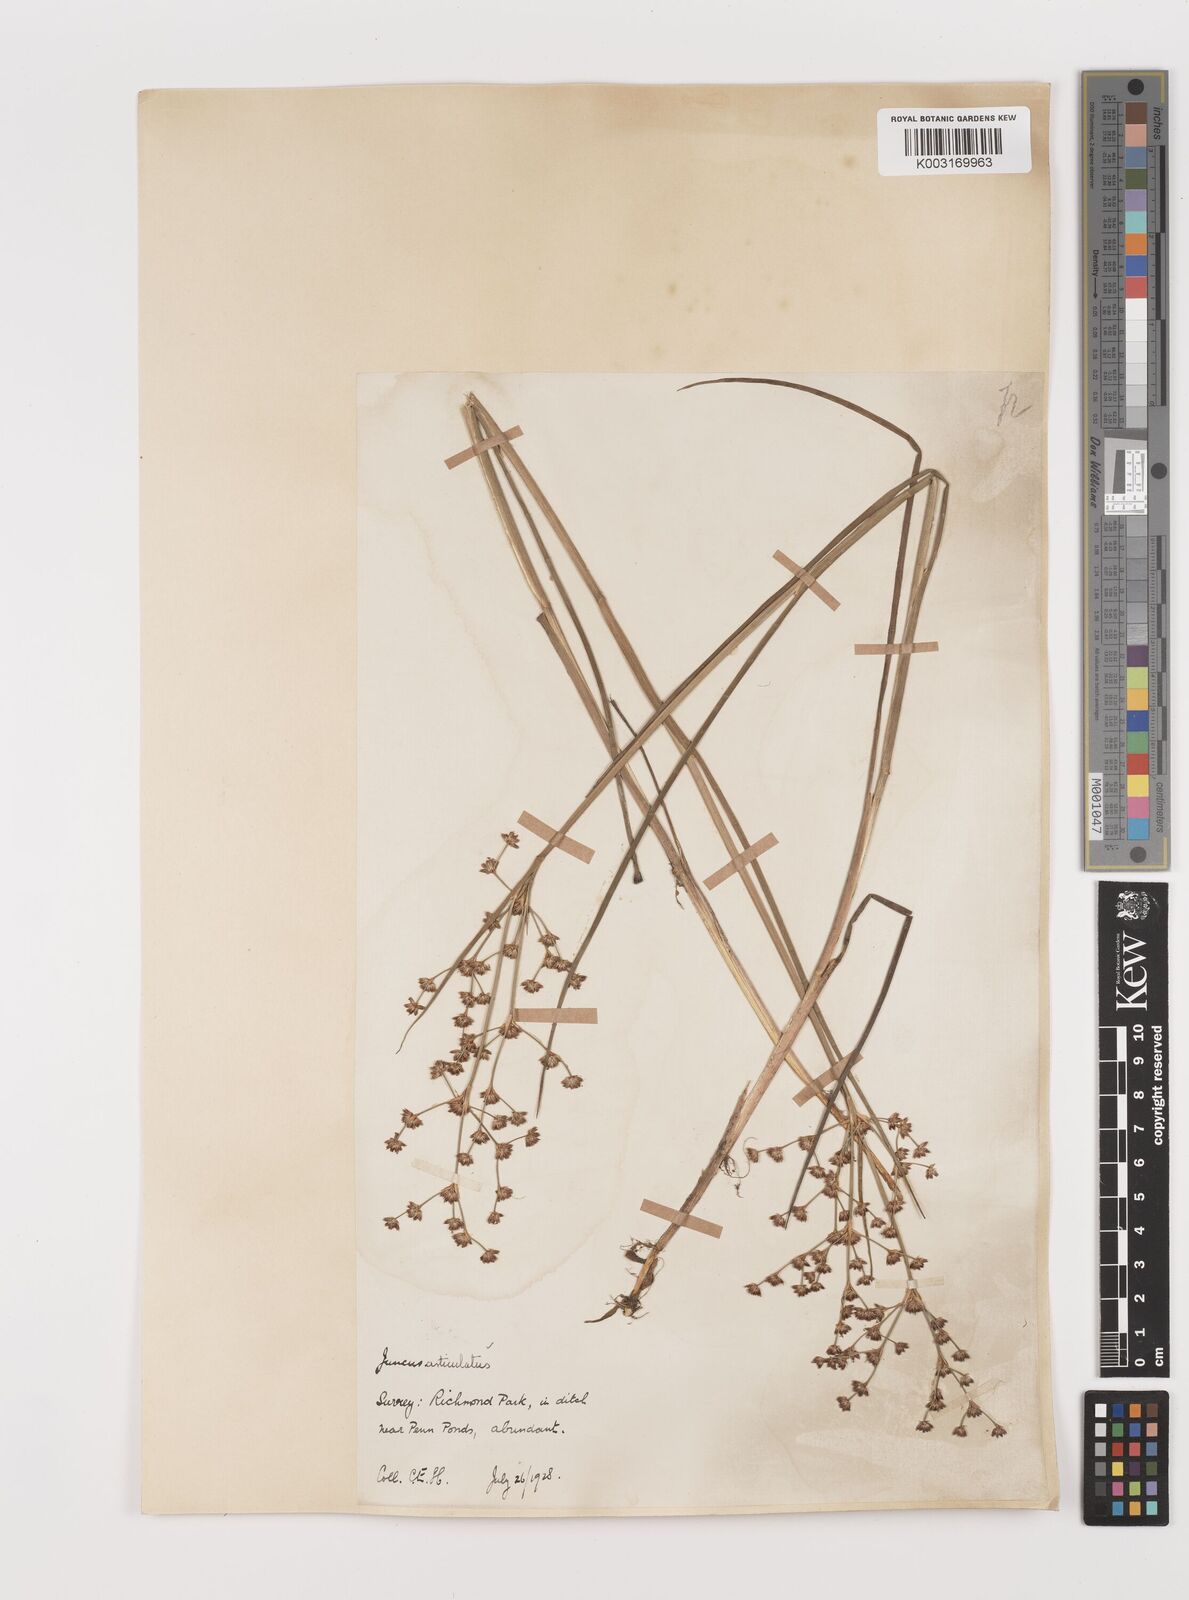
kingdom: Plantae
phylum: Tracheophyta
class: Liliopsida
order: Poales
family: Juncaceae
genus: Juncus
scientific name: Juncus articulatus
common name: Jointed rush
